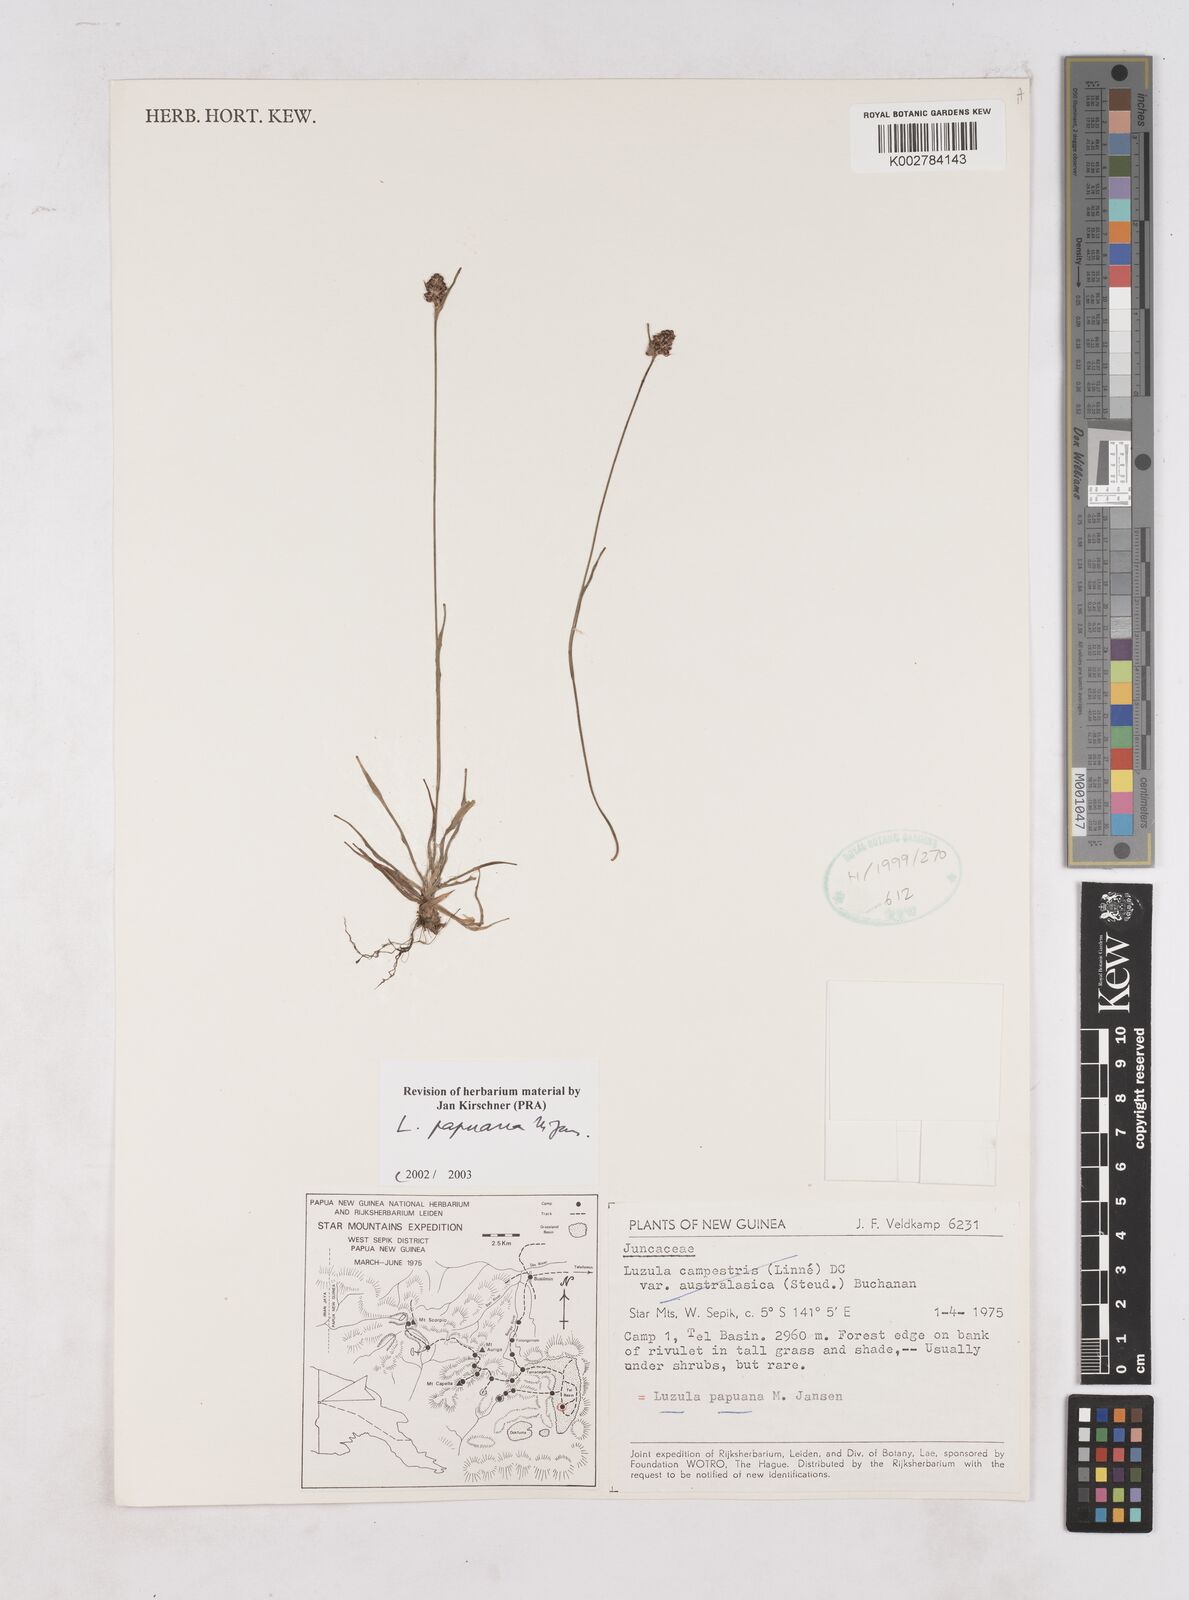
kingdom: Plantae
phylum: Tracheophyta
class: Liliopsida
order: Poales
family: Juncaceae
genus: Luzula
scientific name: Luzula papuana
